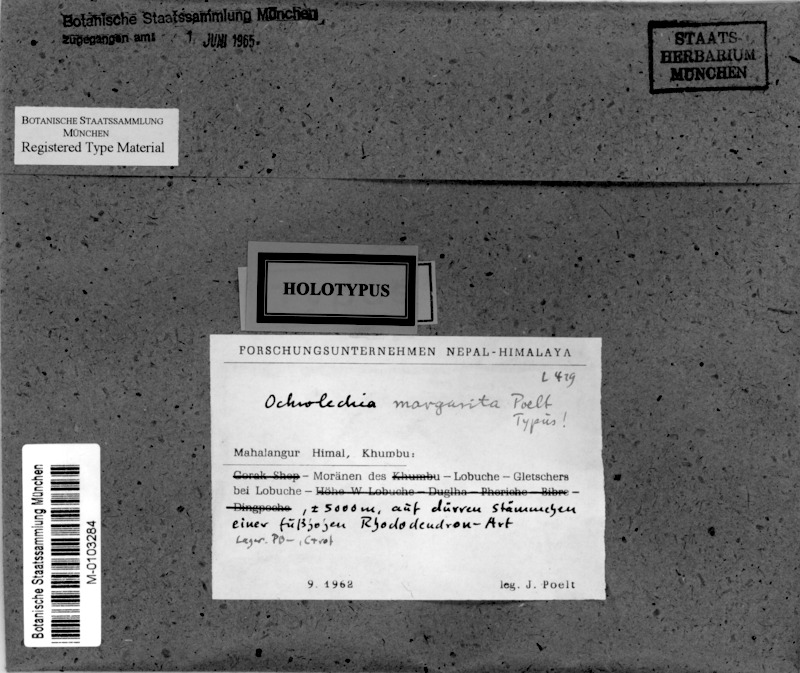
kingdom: Fungi
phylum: Ascomycota
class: Lecanoromycetes
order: Pertusariales
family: Ochrolechiaceae
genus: Ochrolechia
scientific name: Ochrolechia
